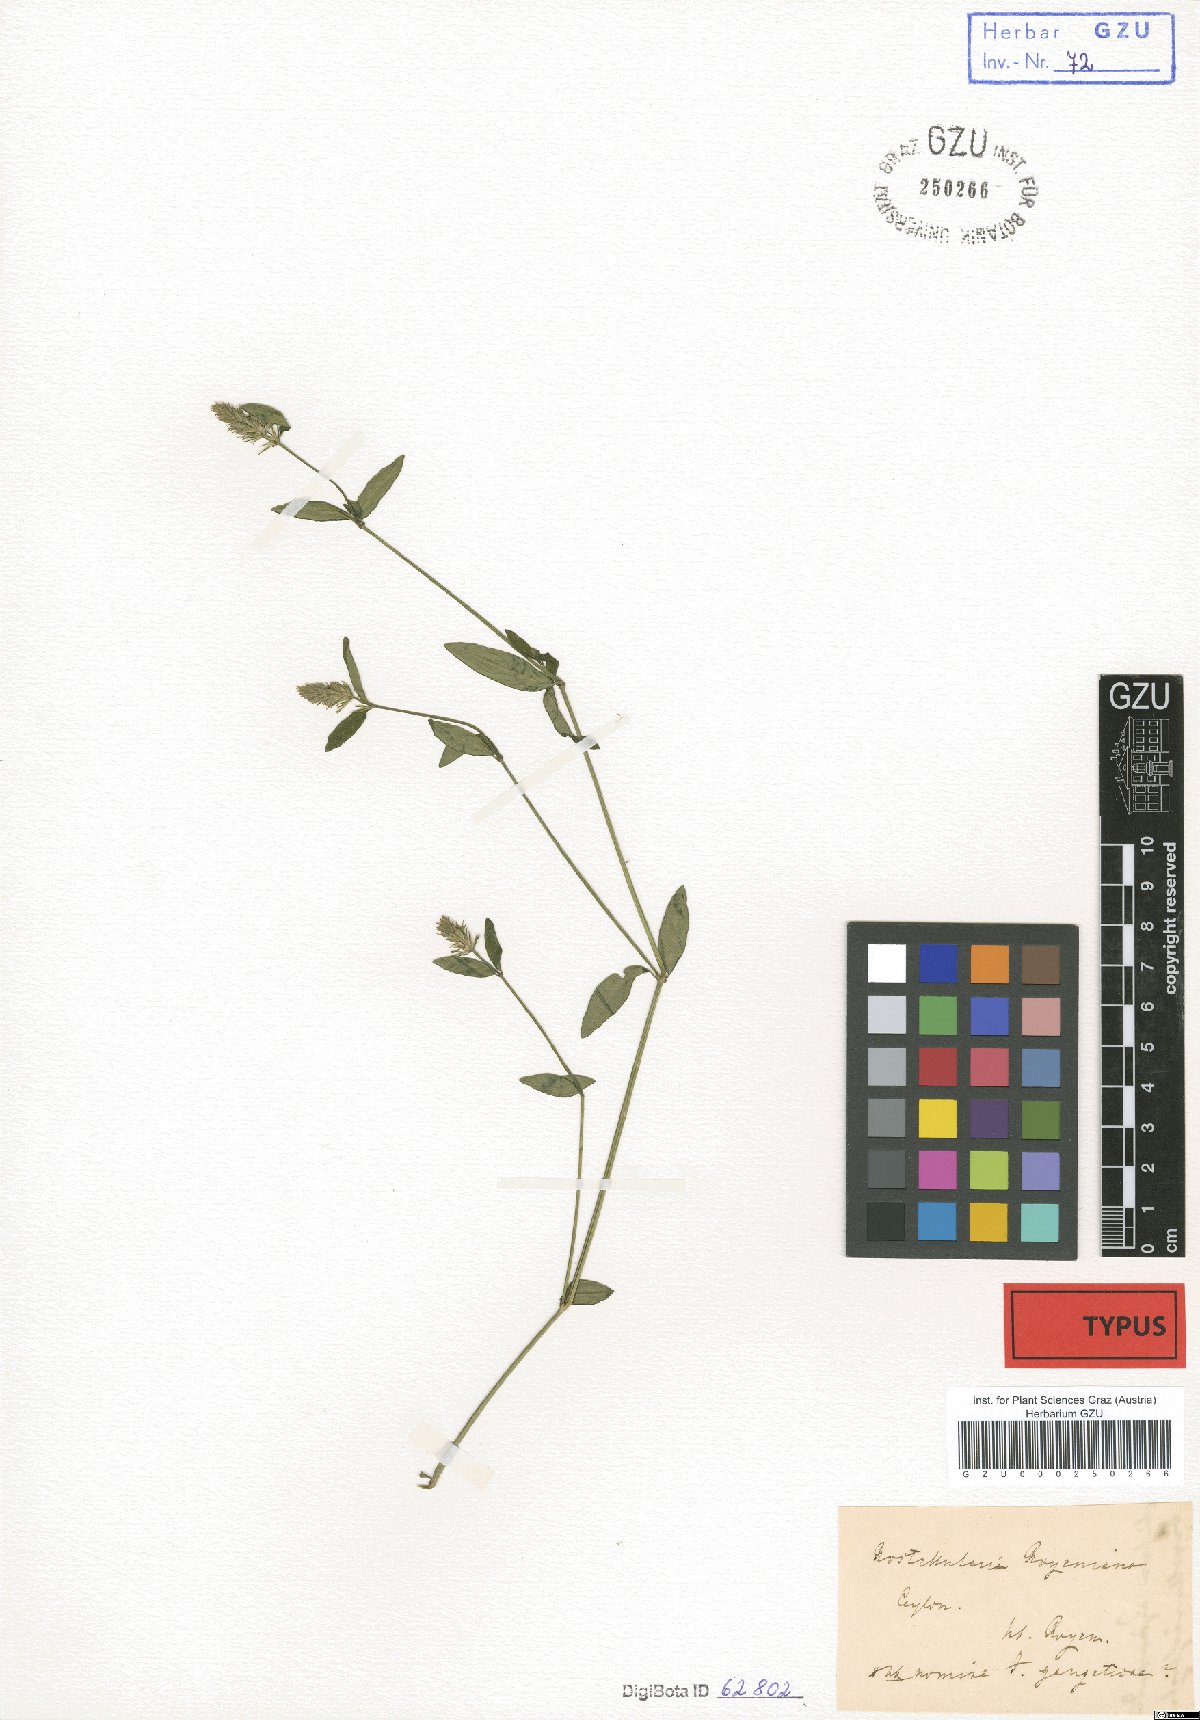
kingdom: Plantae
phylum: Tracheophyta
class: Magnoliopsida
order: Lamiales
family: Acanthaceae
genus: Rostellularia
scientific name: Rostellularia royeniana
